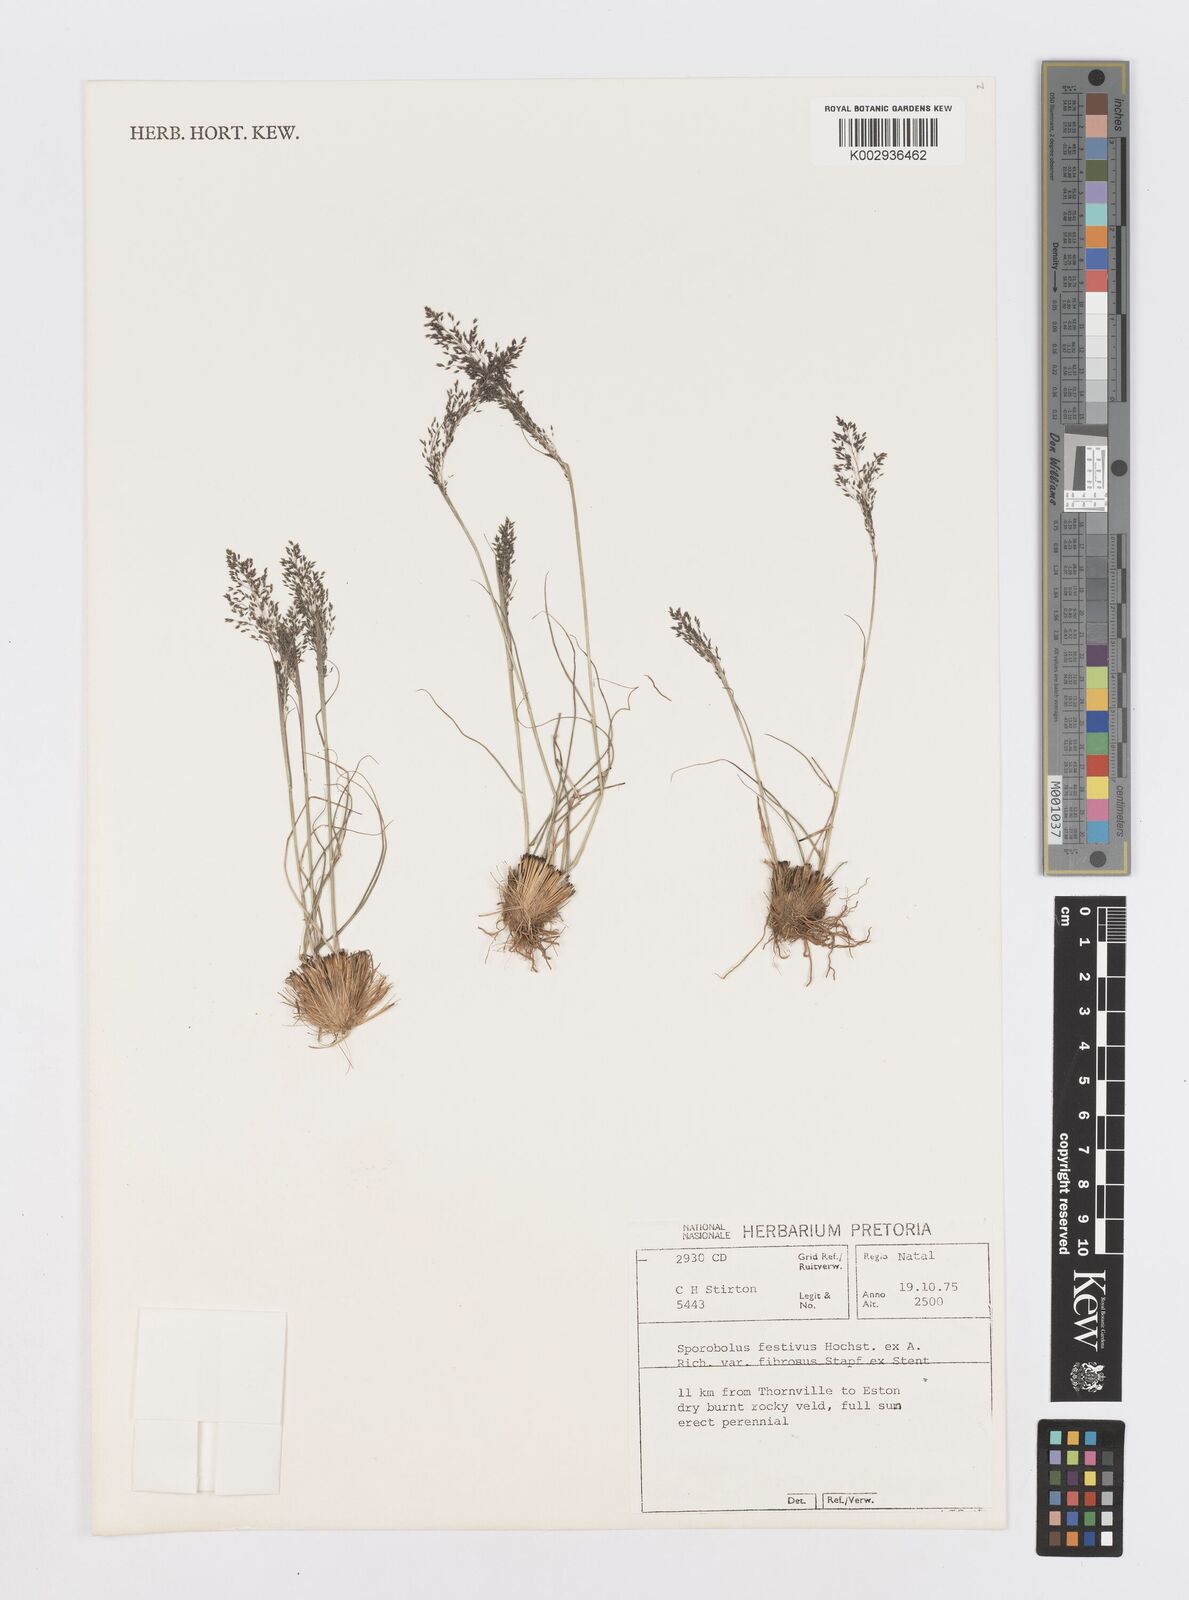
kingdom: Plantae
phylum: Tracheophyta
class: Liliopsida
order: Poales
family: Poaceae
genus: Sporobolus
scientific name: Sporobolus festivus
